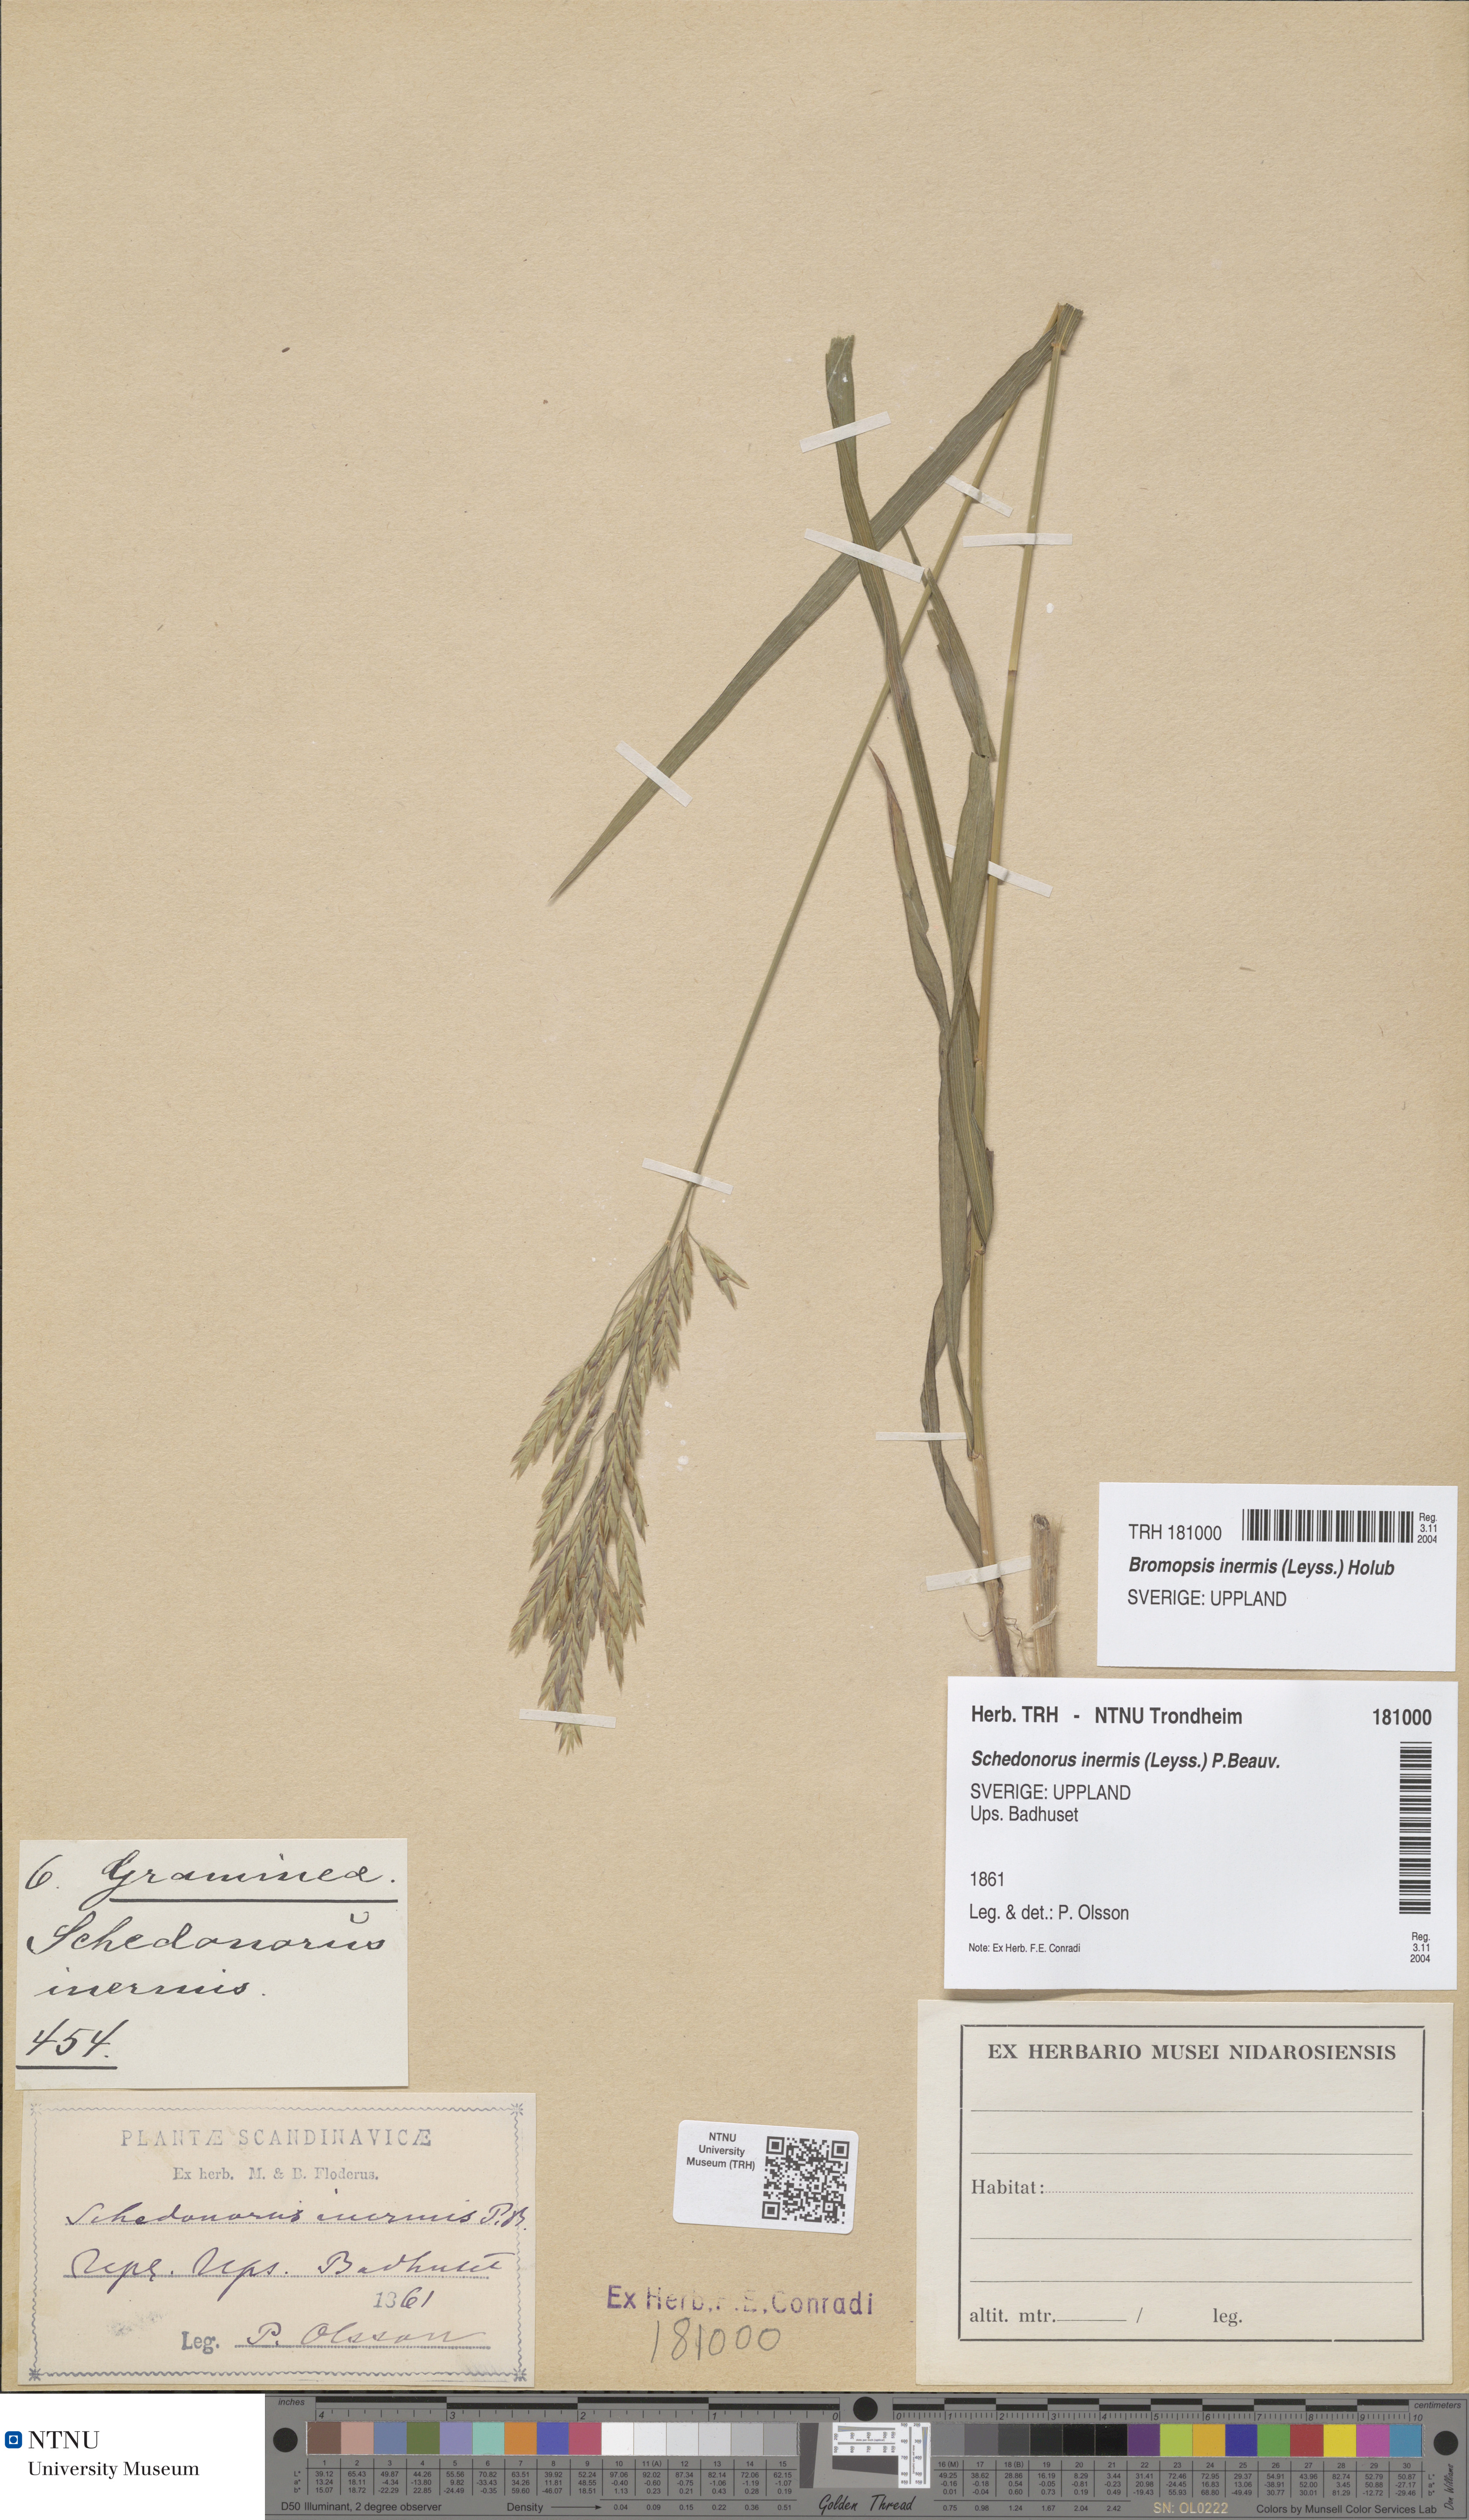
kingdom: Plantae
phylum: Tracheophyta
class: Liliopsida
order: Poales
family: Poaceae
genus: Bromus
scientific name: Bromus inermis
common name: Smooth brome
